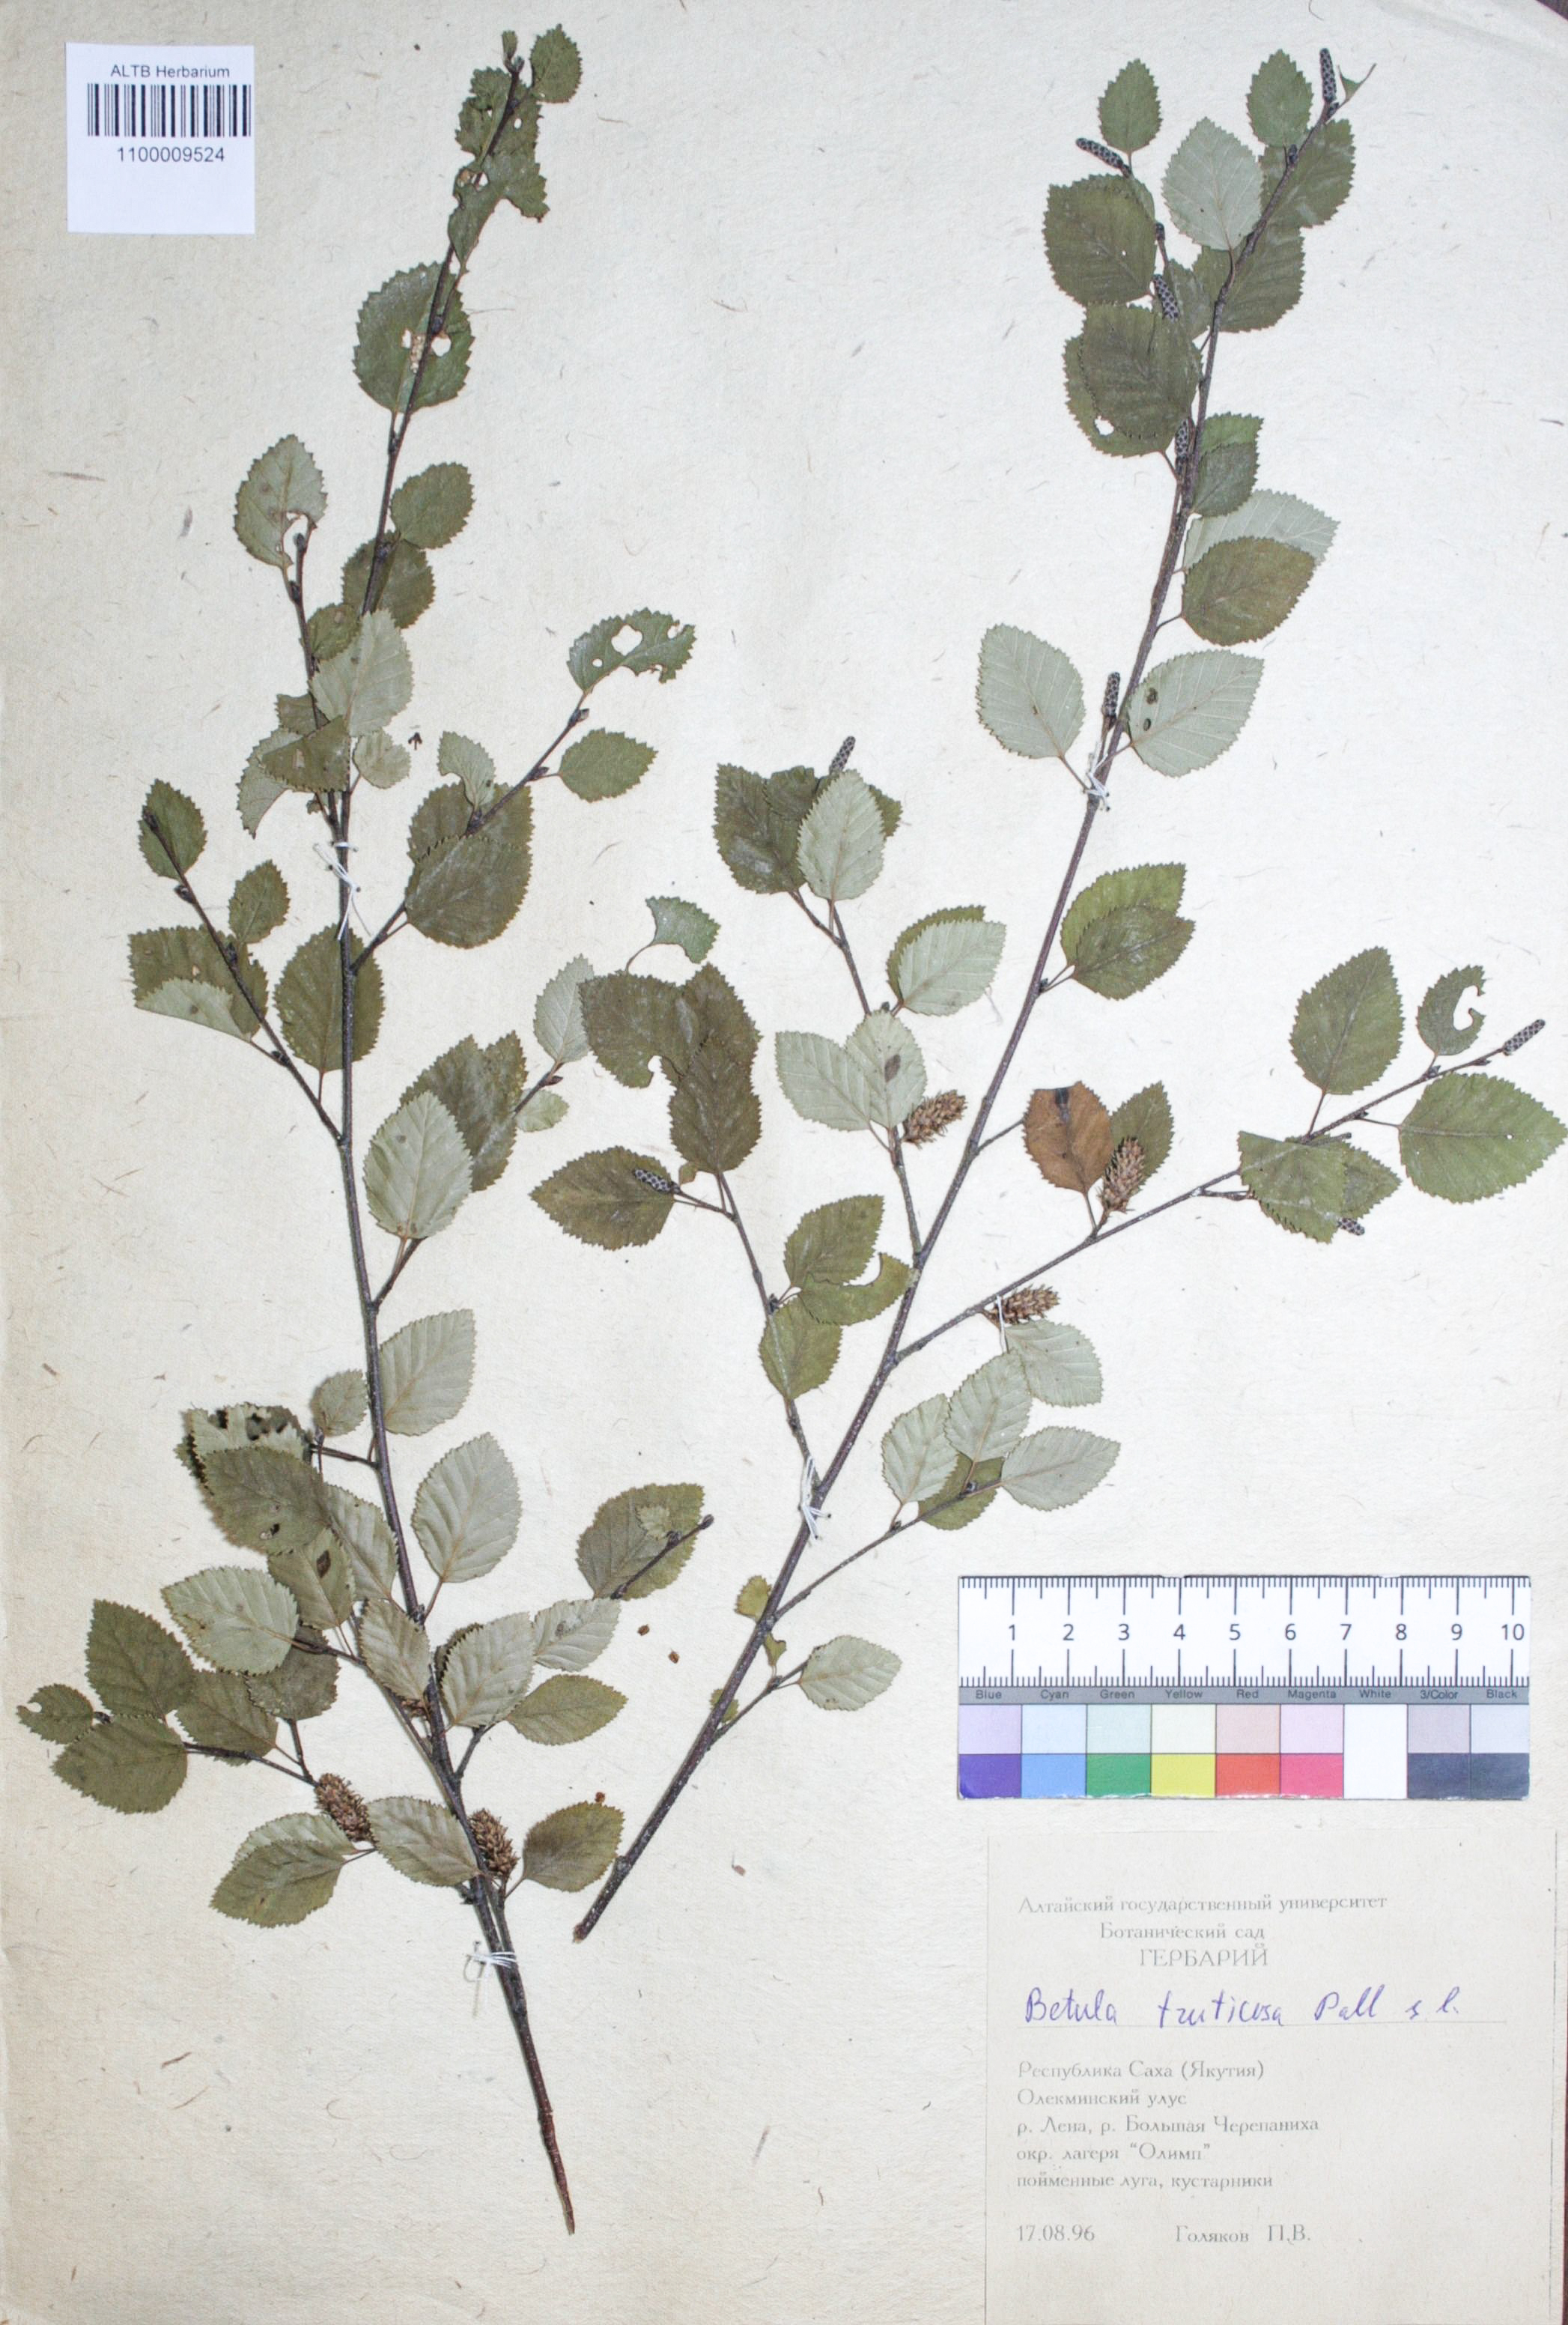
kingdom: Plantae
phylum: Tracheophyta
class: Magnoliopsida
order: Fagales
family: Betulaceae
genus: Betula
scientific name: Betula fruticosa
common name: Japanese bog birch
